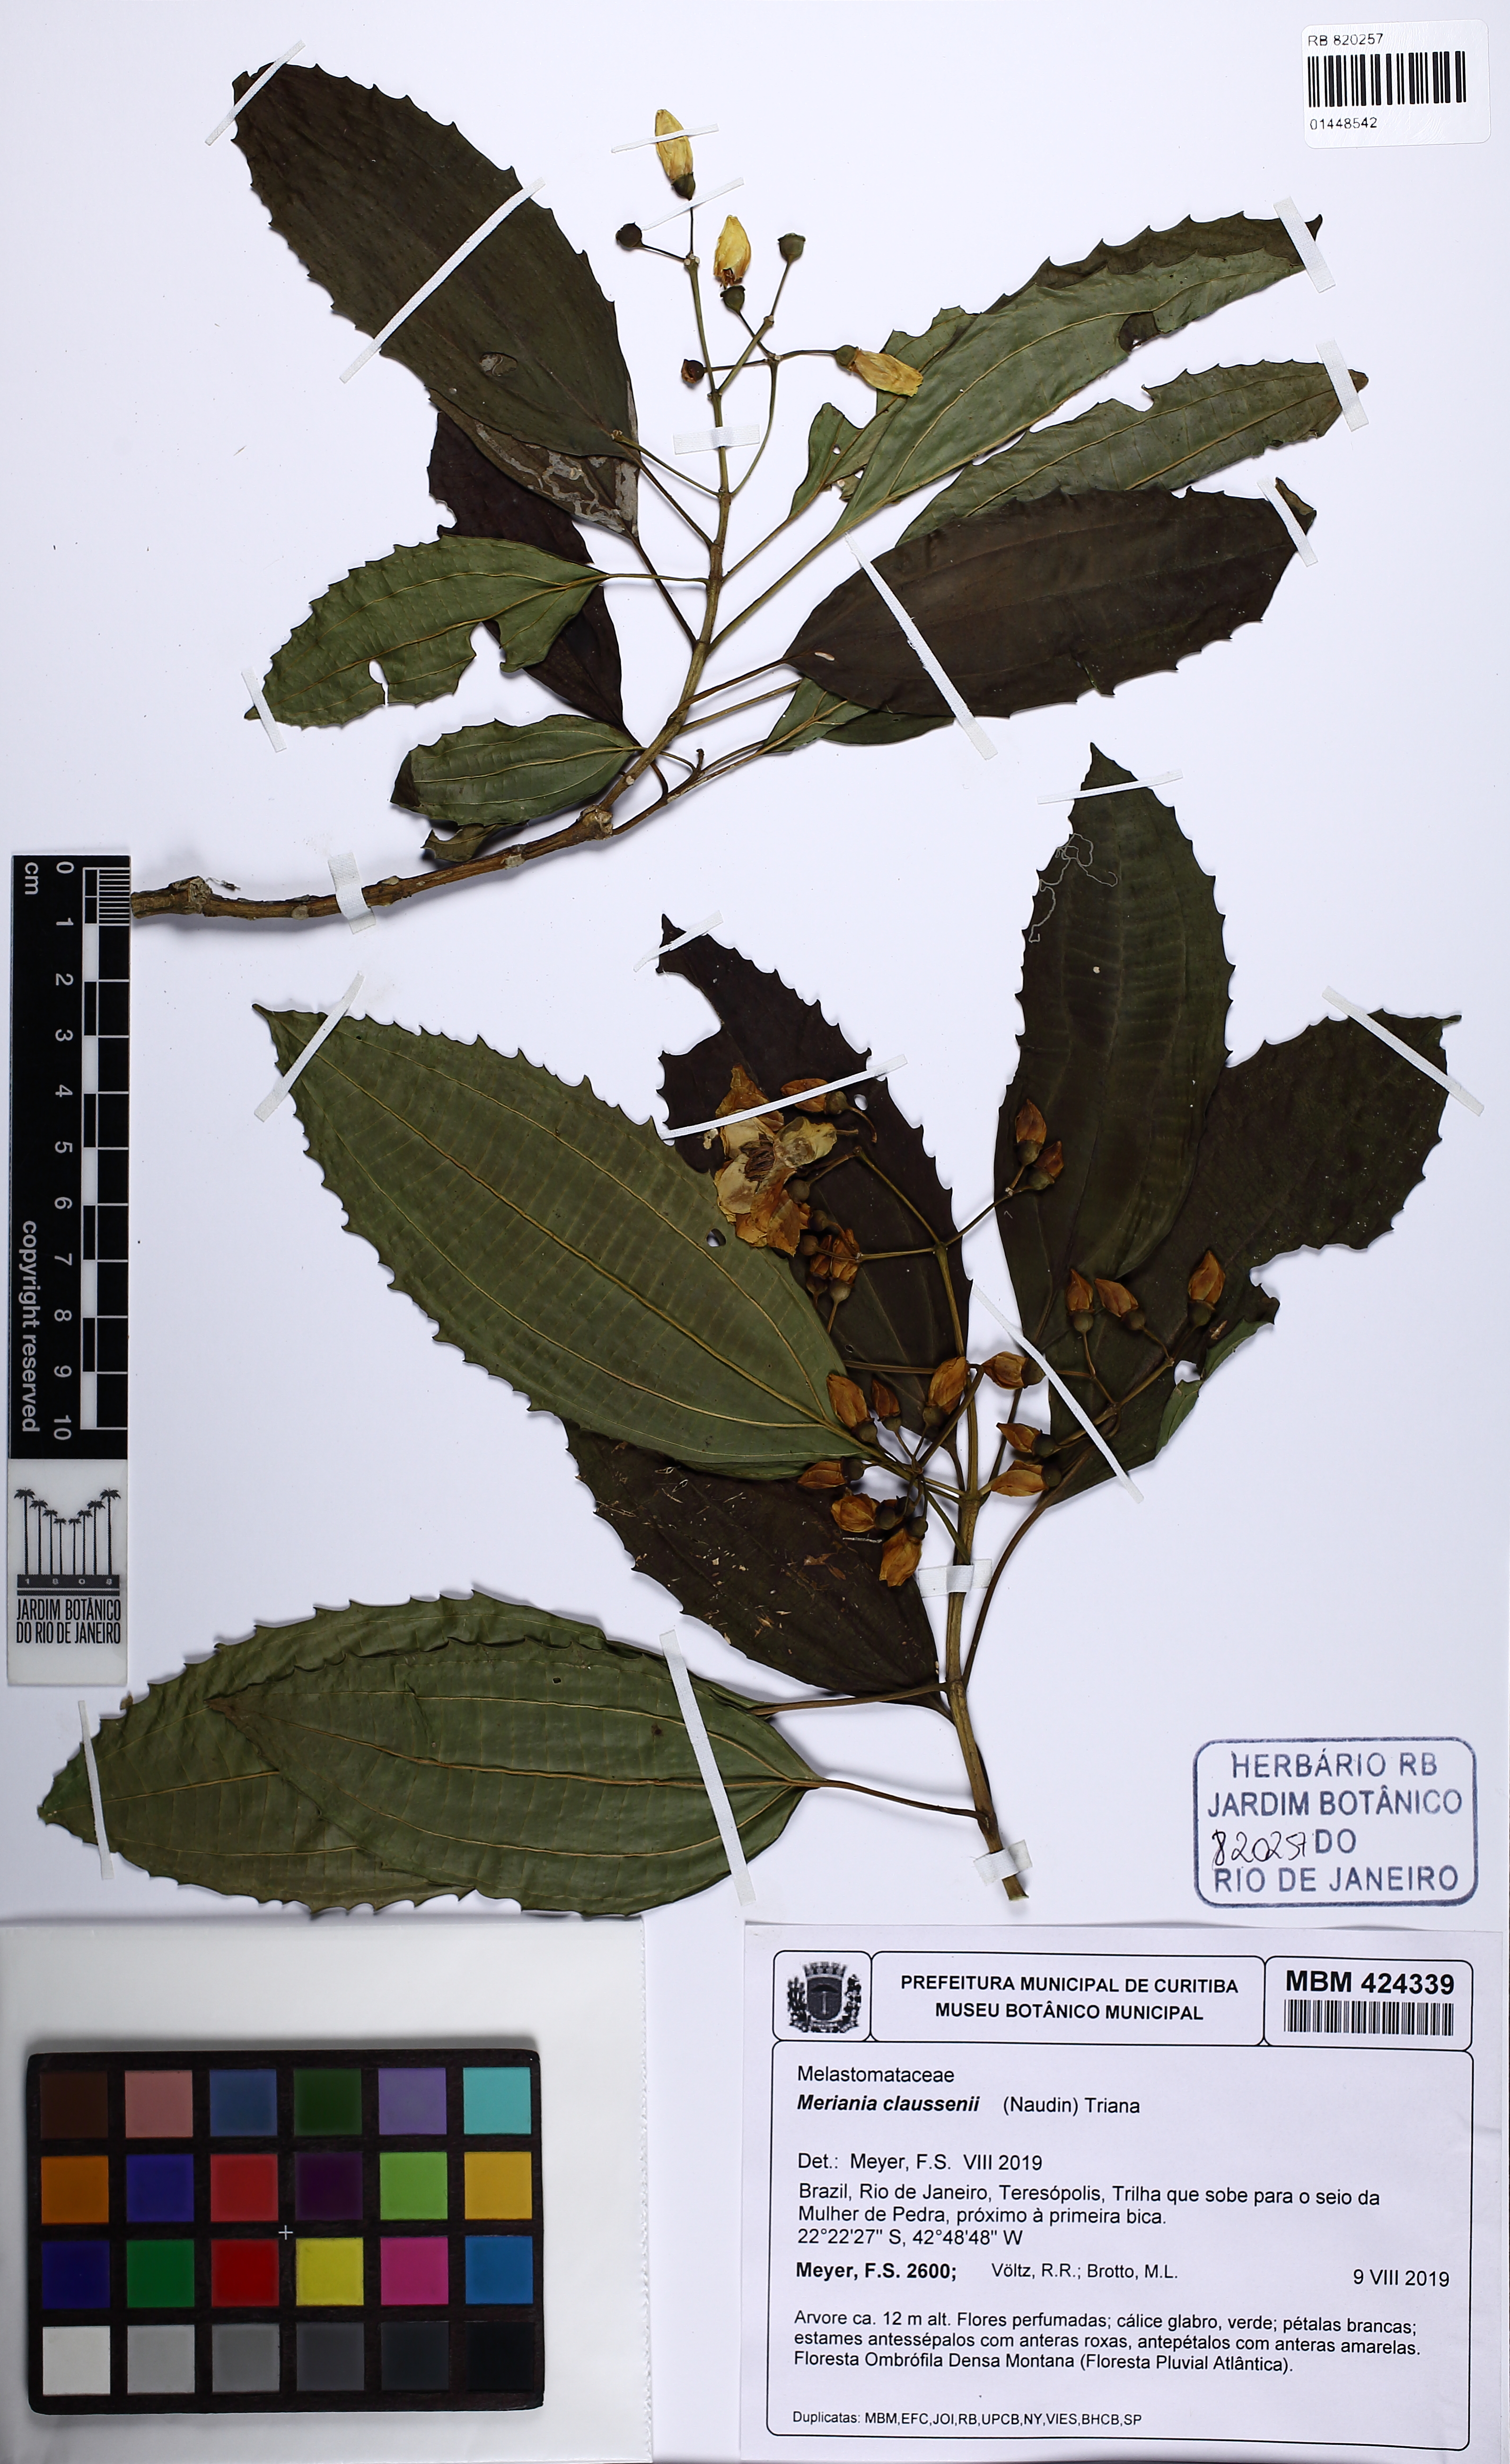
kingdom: Plantae
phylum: Tracheophyta
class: Magnoliopsida
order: Myrtales
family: Melastomataceae
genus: Meriania
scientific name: Meriania claussenii
